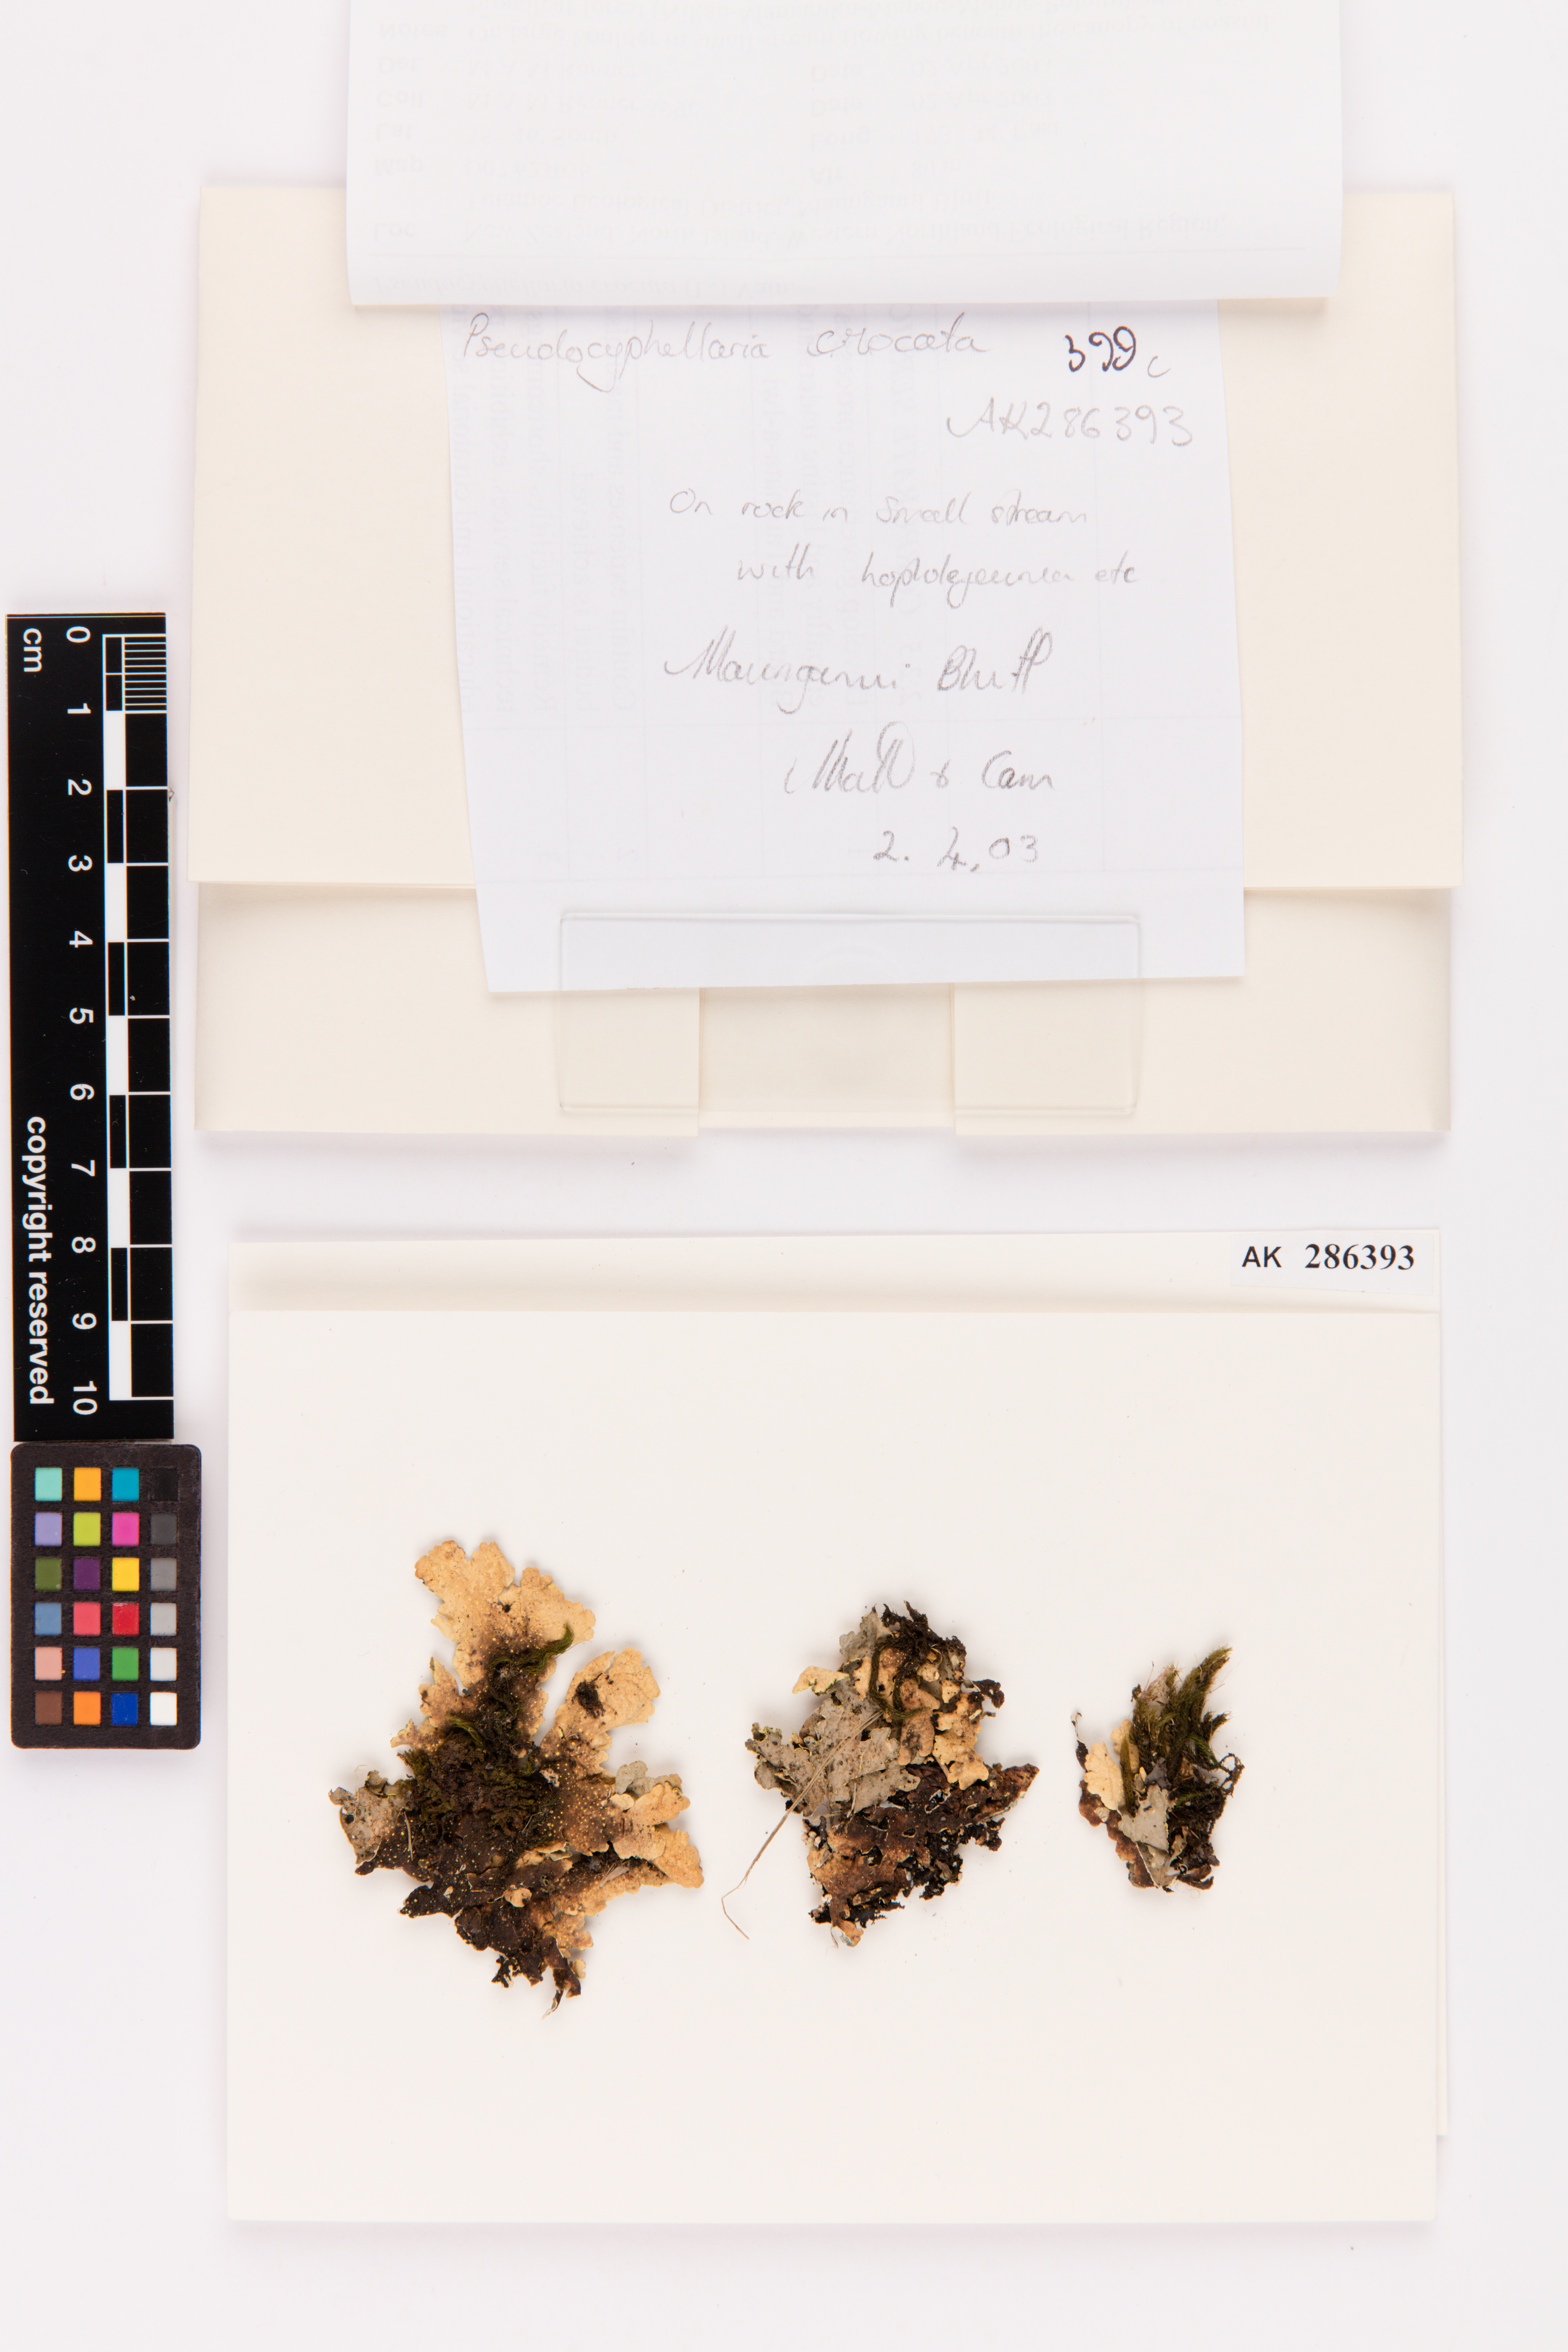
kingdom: Fungi
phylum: Ascomycota
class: Lecanoromycetes
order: Peltigerales
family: Lobariaceae
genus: Pseudocyphellaria
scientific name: Pseudocyphellaria crocata
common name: Golden specklebelly
